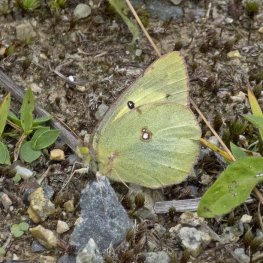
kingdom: Animalia
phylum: Arthropoda
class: Insecta
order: Lepidoptera
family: Pieridae
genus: Colias
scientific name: Colias philodice
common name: Clouded Sulphur
